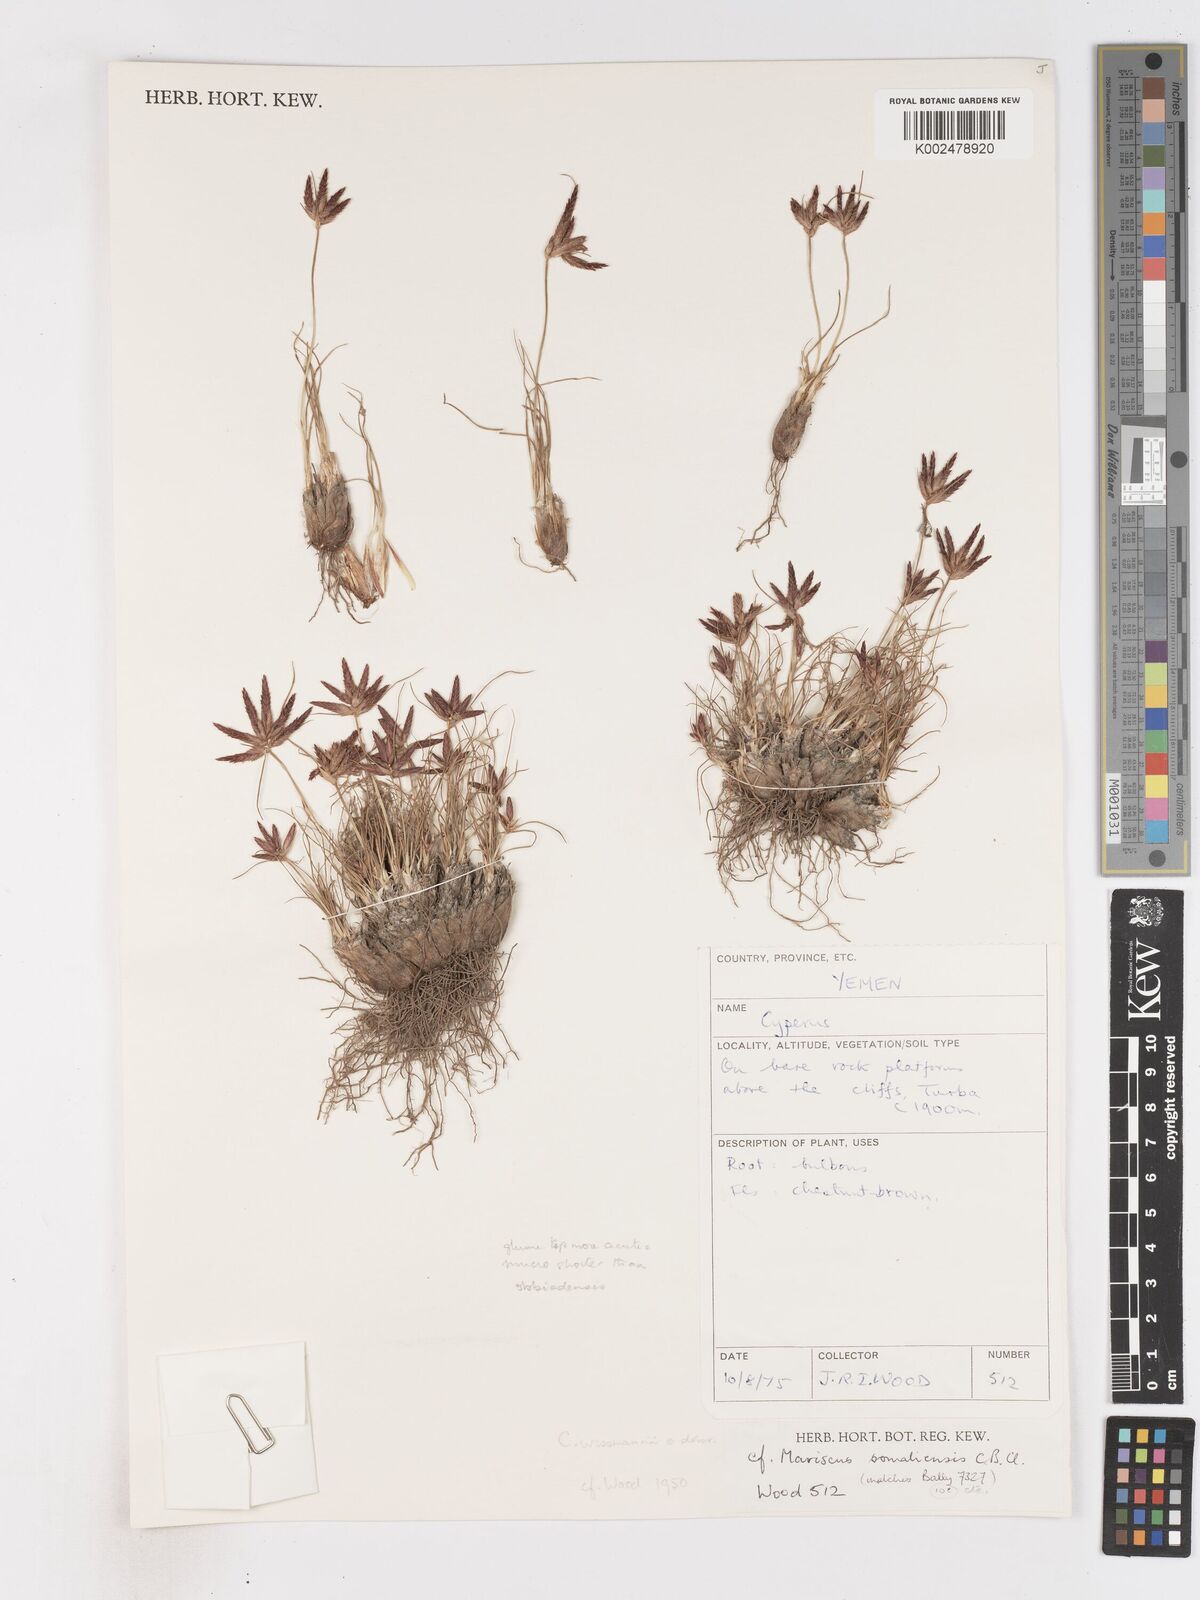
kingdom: Plantae
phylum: Tracheophyta
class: Liliopsida
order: Poales
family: Cyperaceae
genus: Cyperus
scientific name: Cyperus wissmannii
